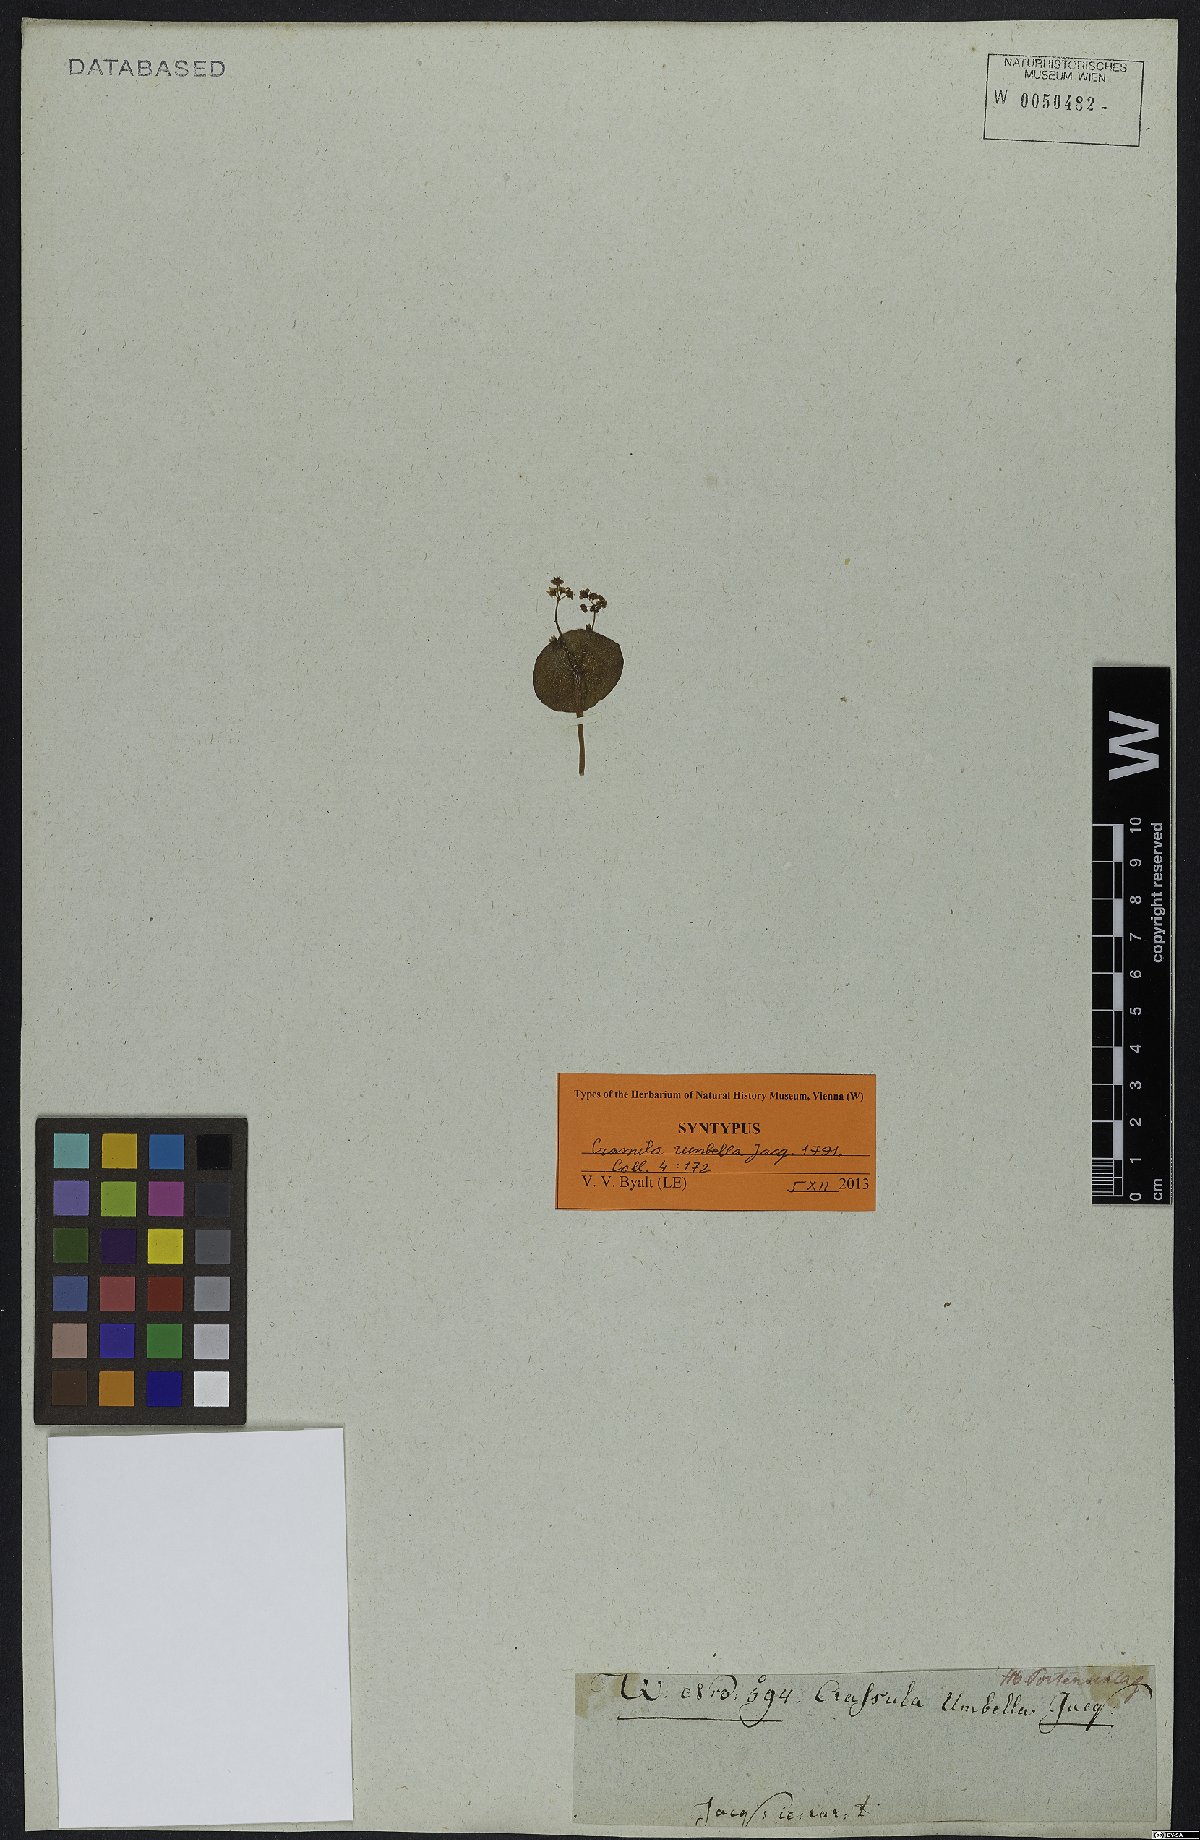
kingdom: Plantae
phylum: Tracheophyta
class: Magnoliopsida
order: Saxifragales
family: Crassulaceae
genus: Crassula
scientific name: Crassula umbella
